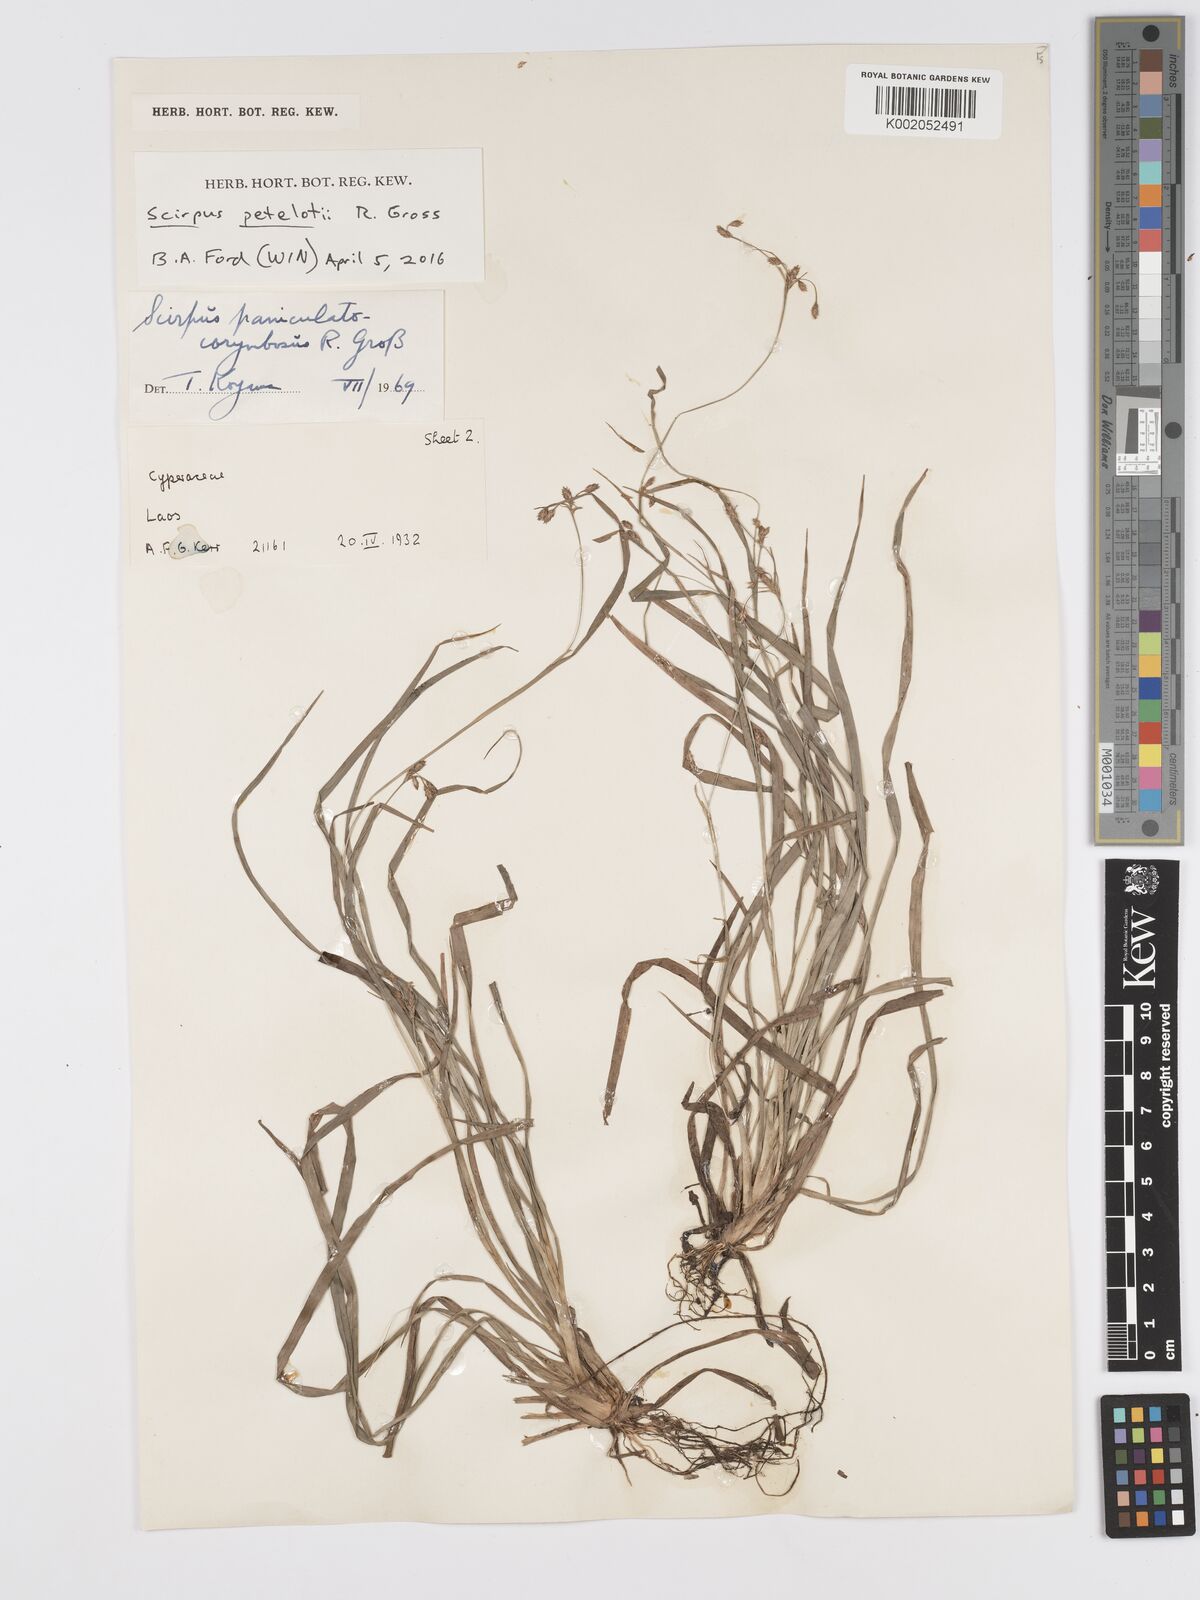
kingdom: Plantae
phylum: Tracheophyta
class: Liliopsida
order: Poales
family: Cyperaceae
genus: Scirpus
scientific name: Scirpus petelotii
